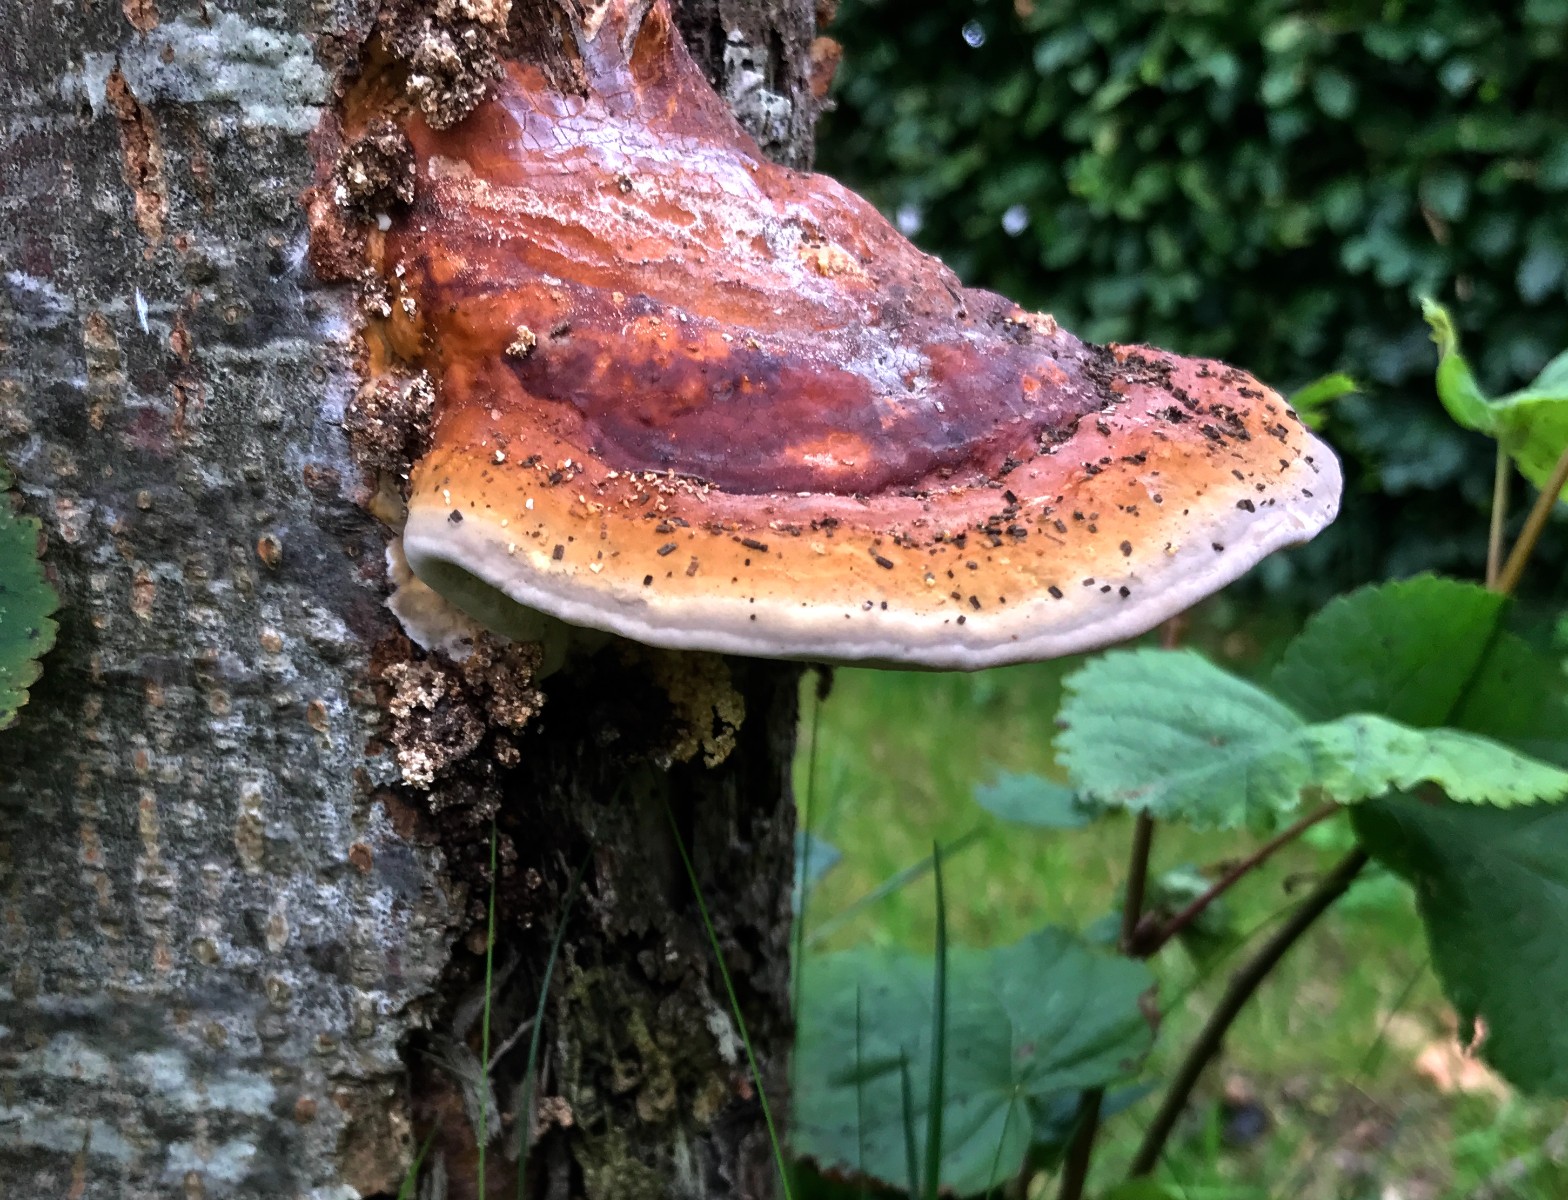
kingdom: Fungi
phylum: Basidiomycota
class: Agaricomycetes
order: Polyporales
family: Fomitopsidaceae
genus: Fomitopsis
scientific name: Fomitopsis pinicola
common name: randbæltet hovporesvamp
